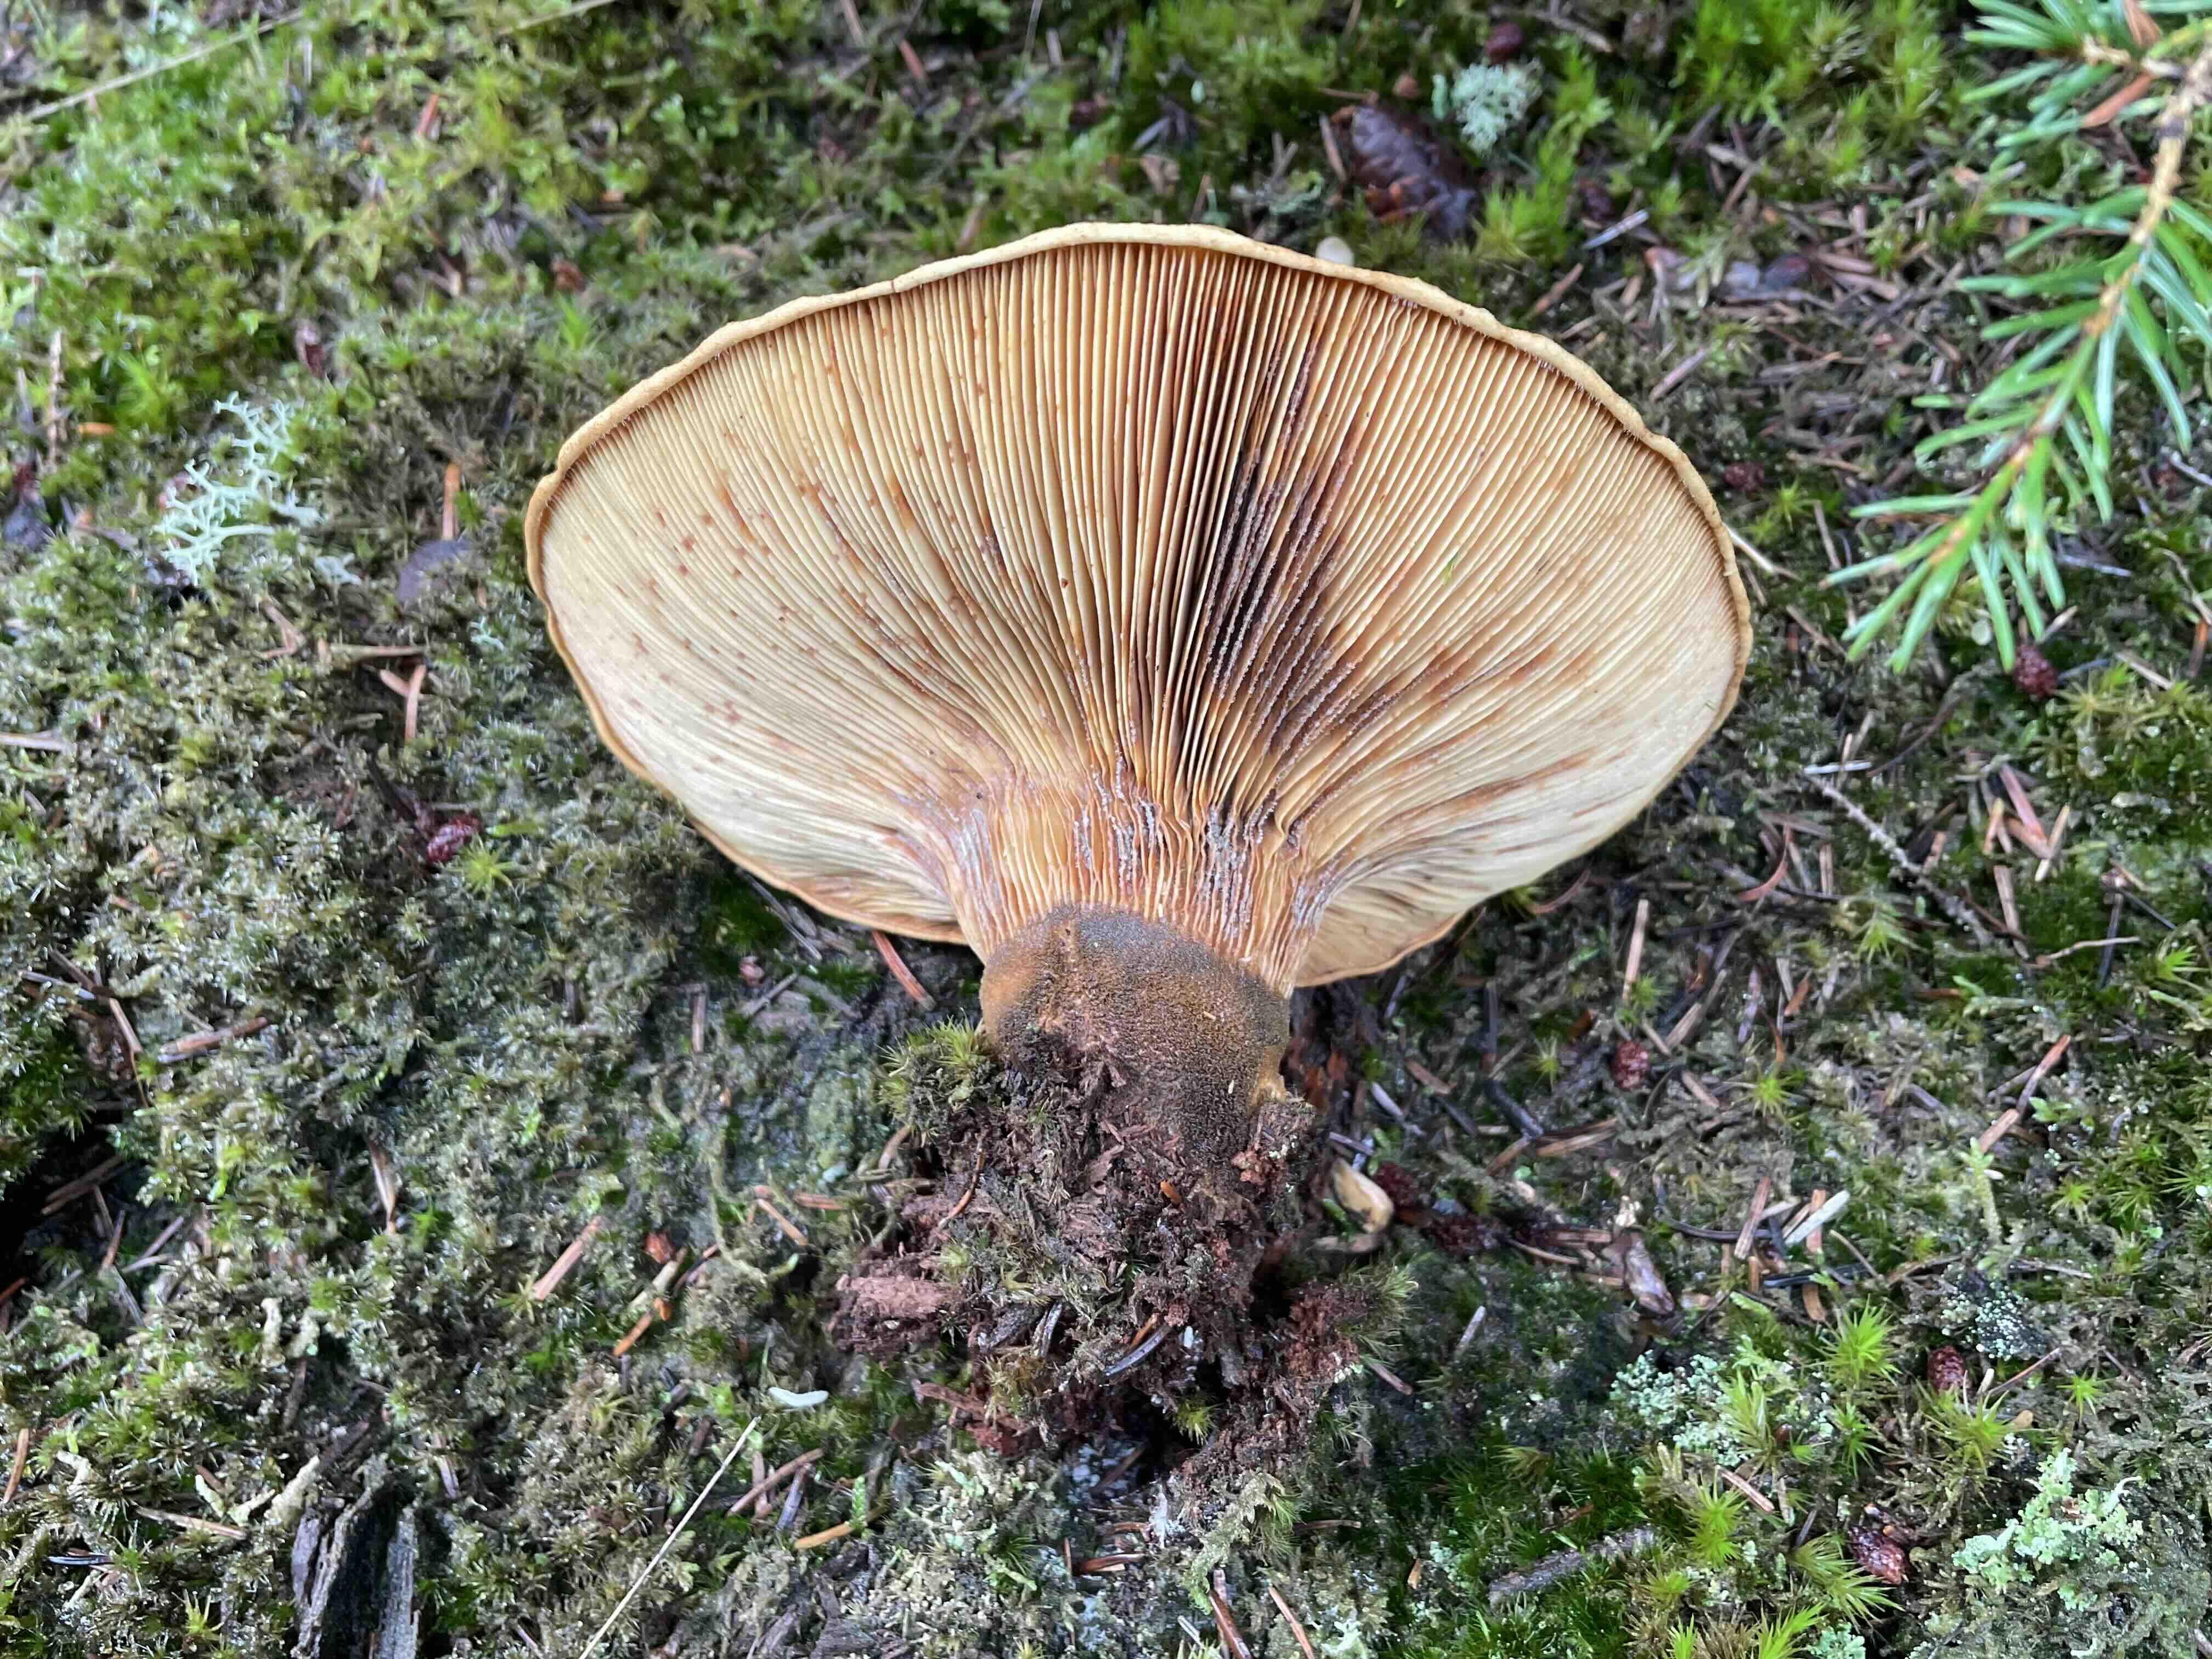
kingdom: Fungi
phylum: Basidiomycota
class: Agaricomycetes
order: Boletales
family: Tapinellaceae
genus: Tapinella
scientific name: Tapinella atrotomentosa
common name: sortfiltet viftesvamp
